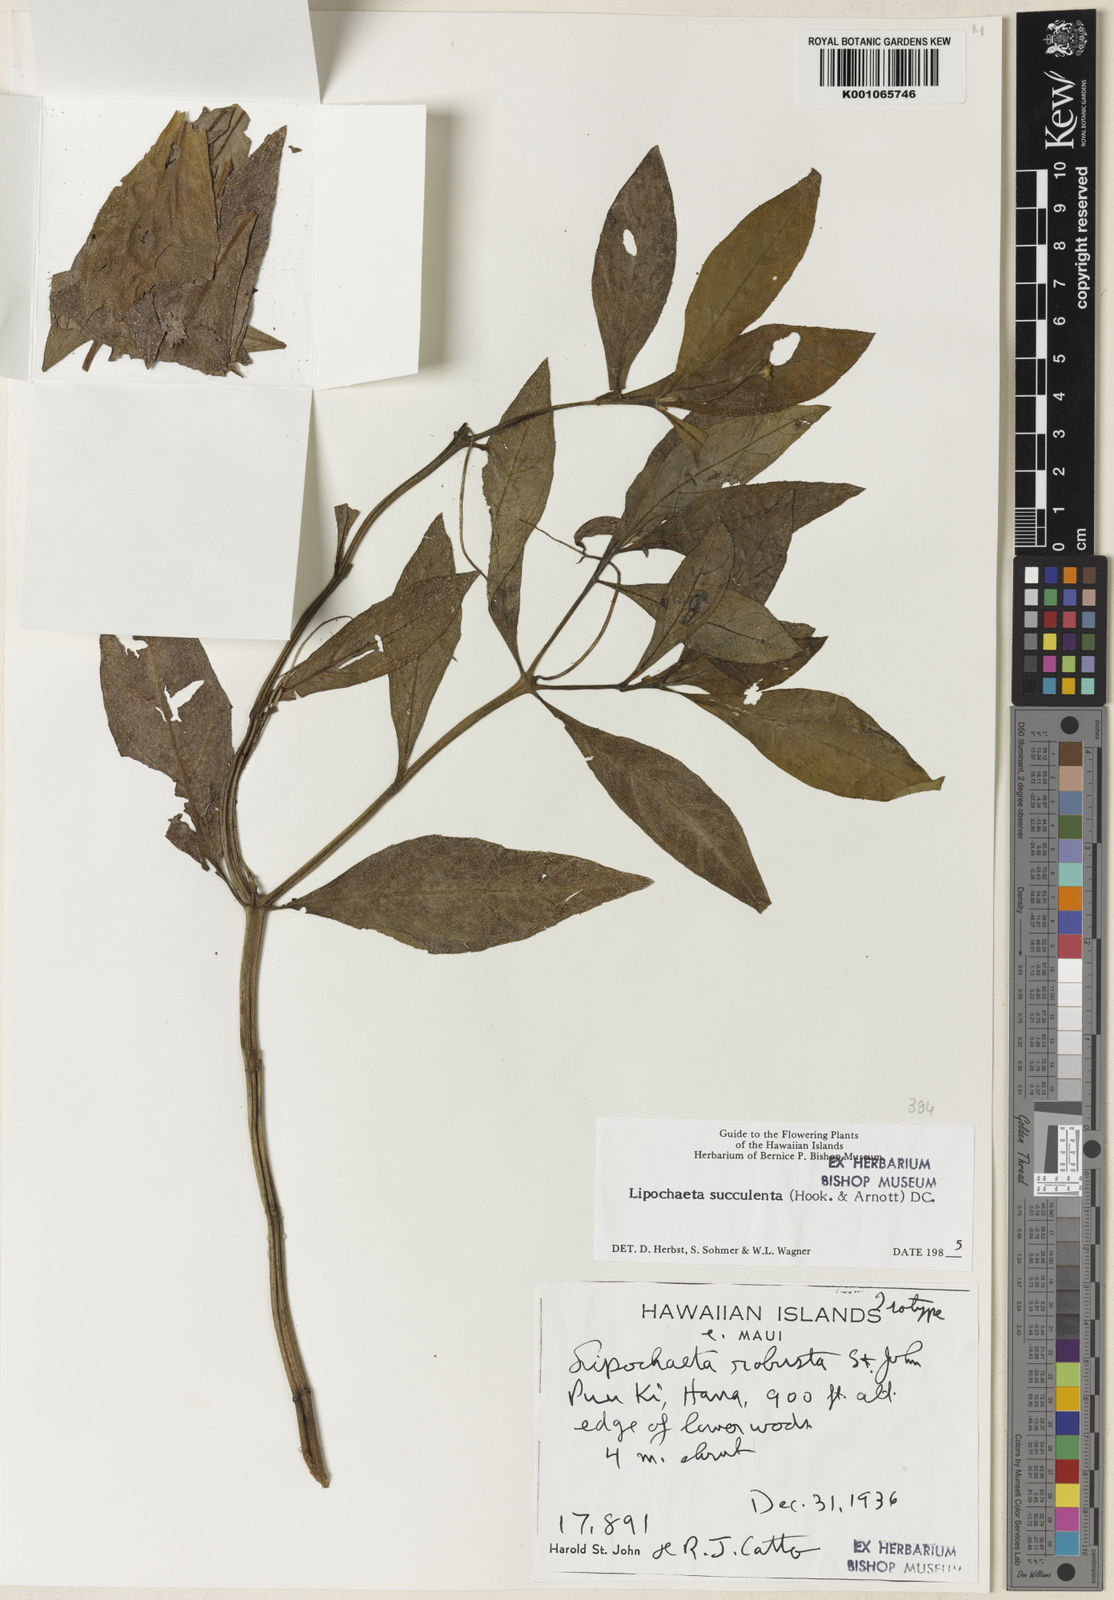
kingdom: Plantae
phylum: Tracheophyta
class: Magnoliopsida
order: Asterales
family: Asteraceae
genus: Lipochaeta
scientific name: Lipochaeta succulenta
